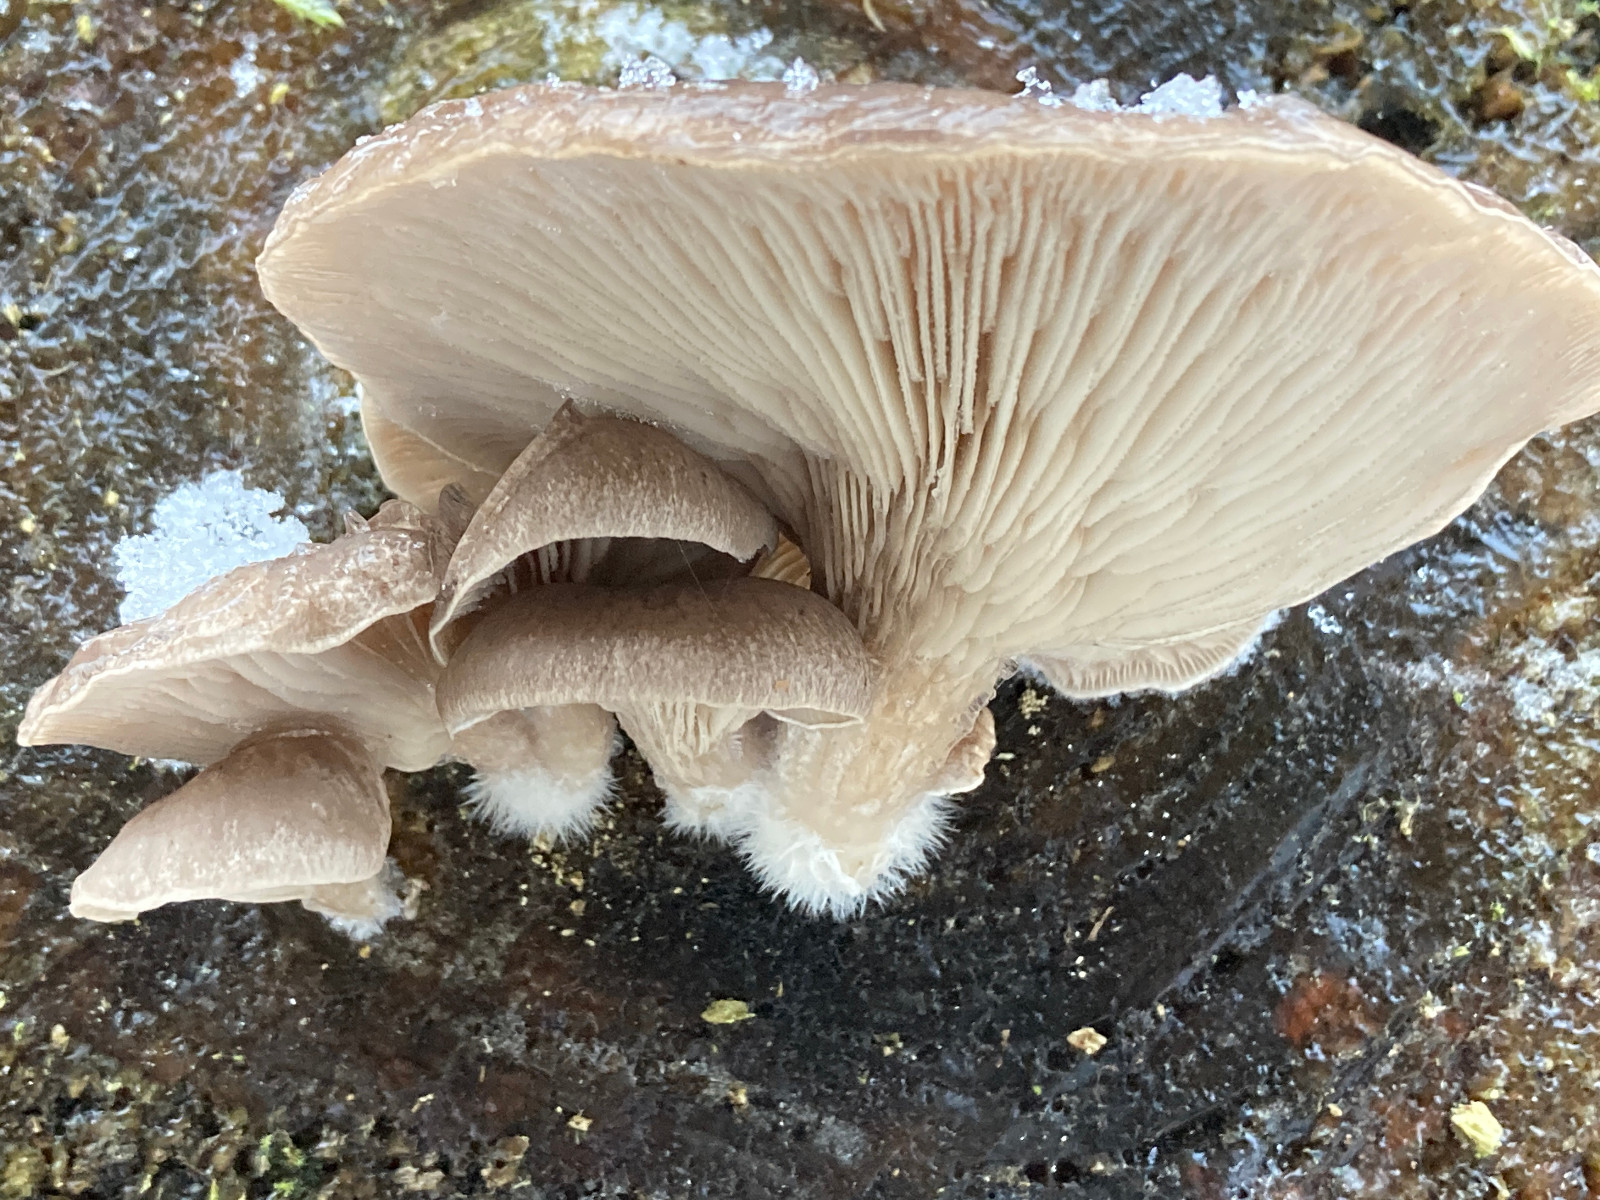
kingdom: Fungi
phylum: Basidiomycota
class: Agaricomycetes
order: Agaricales
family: Pleurotaceae
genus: Pleurotus
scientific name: Pleurotus ostreatus
